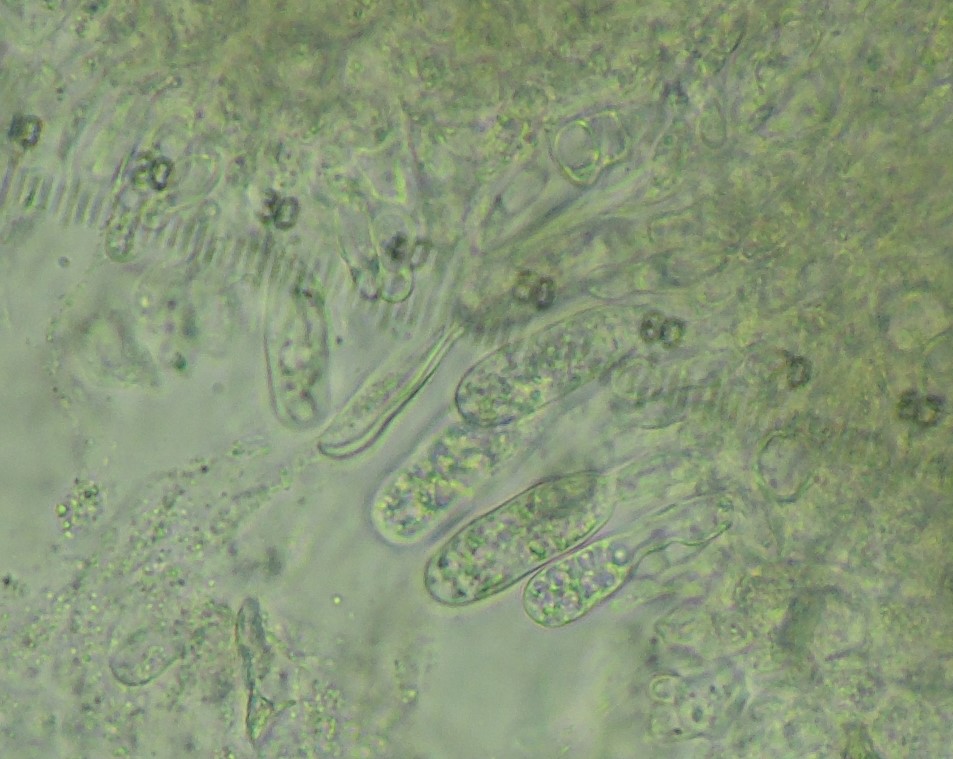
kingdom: Fungi
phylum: Ascomycota
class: Dothideomycetes
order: Botryosphaeriales
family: Botryosphaeriaceae
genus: Sphaeropsis
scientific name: Sphaeropsis sapinea
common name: Sphaeropsis blight
